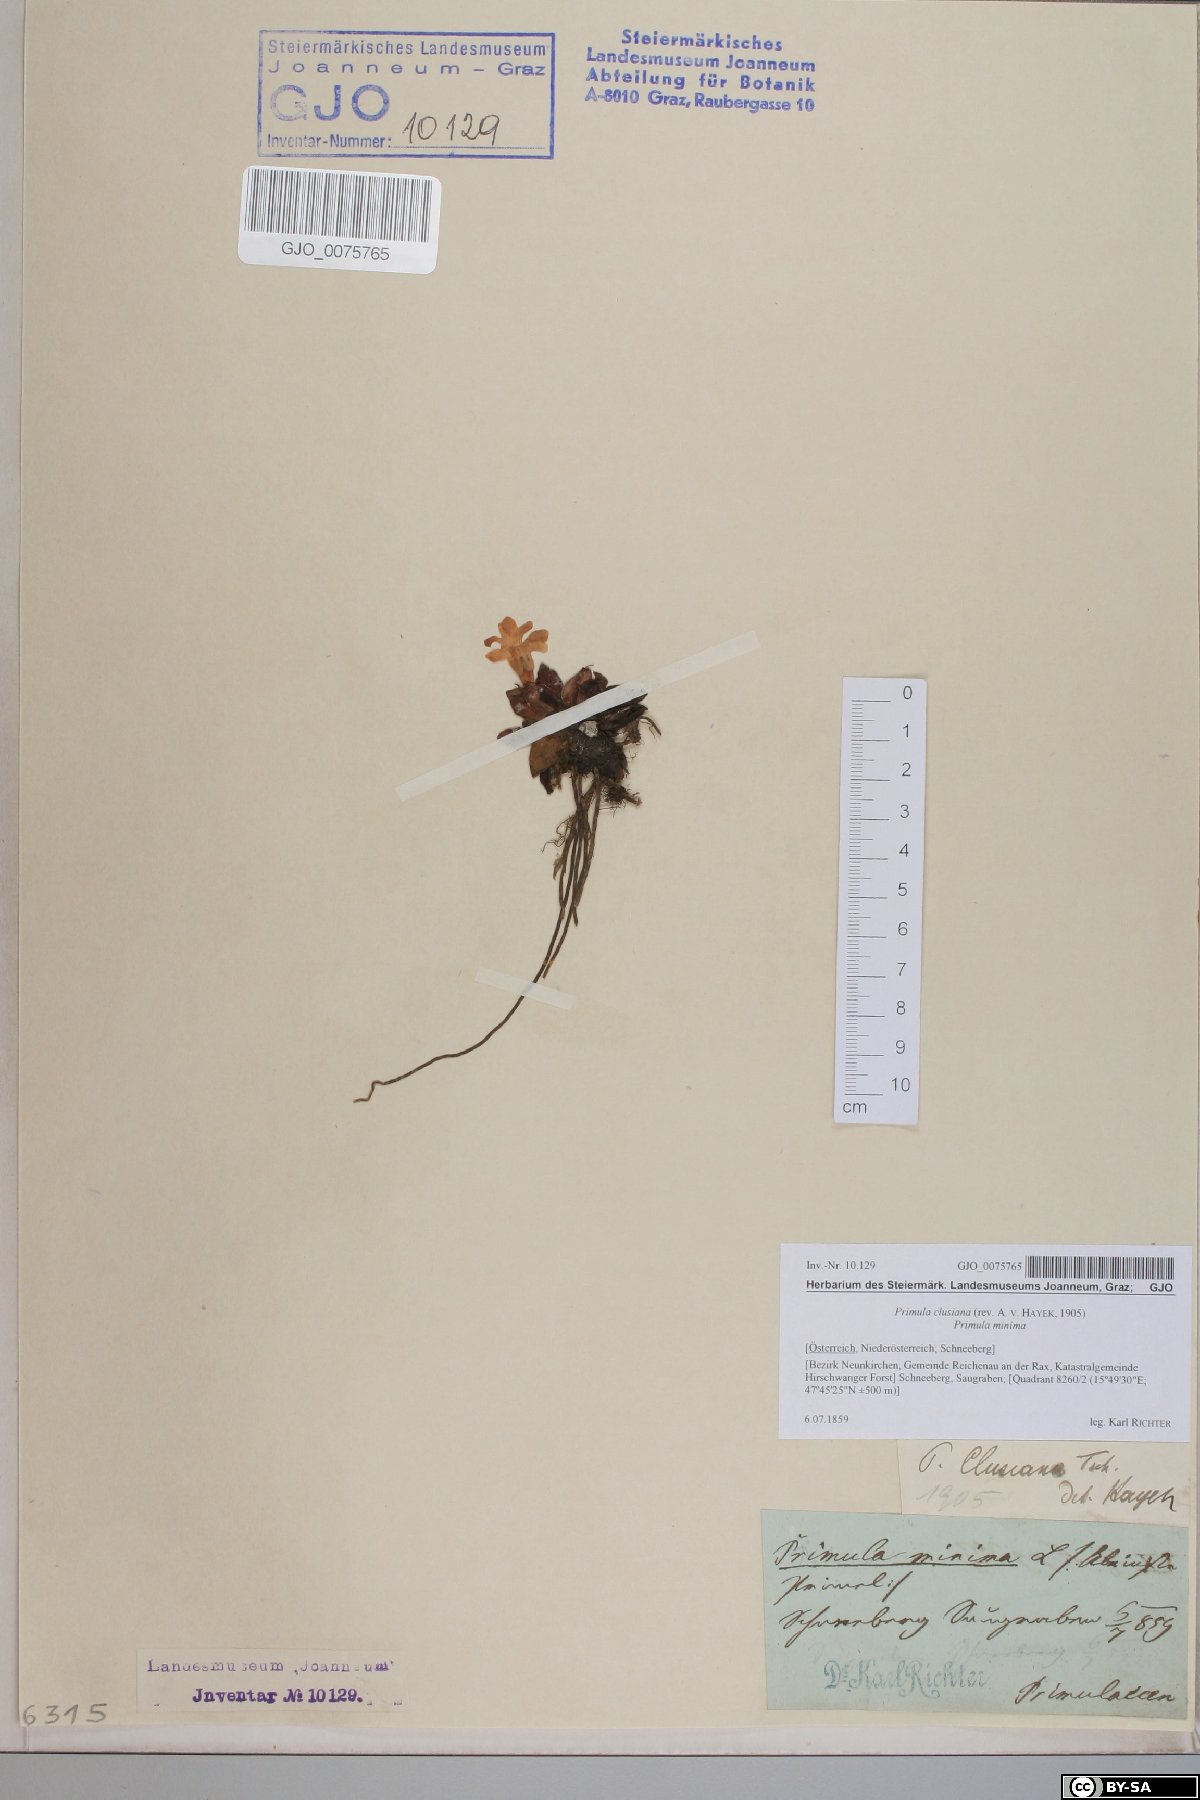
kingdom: Plantae
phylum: Tracheophyta
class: Magnoliopsida
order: Ericales
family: Primulaceae
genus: Primula
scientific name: Primula clusiana
